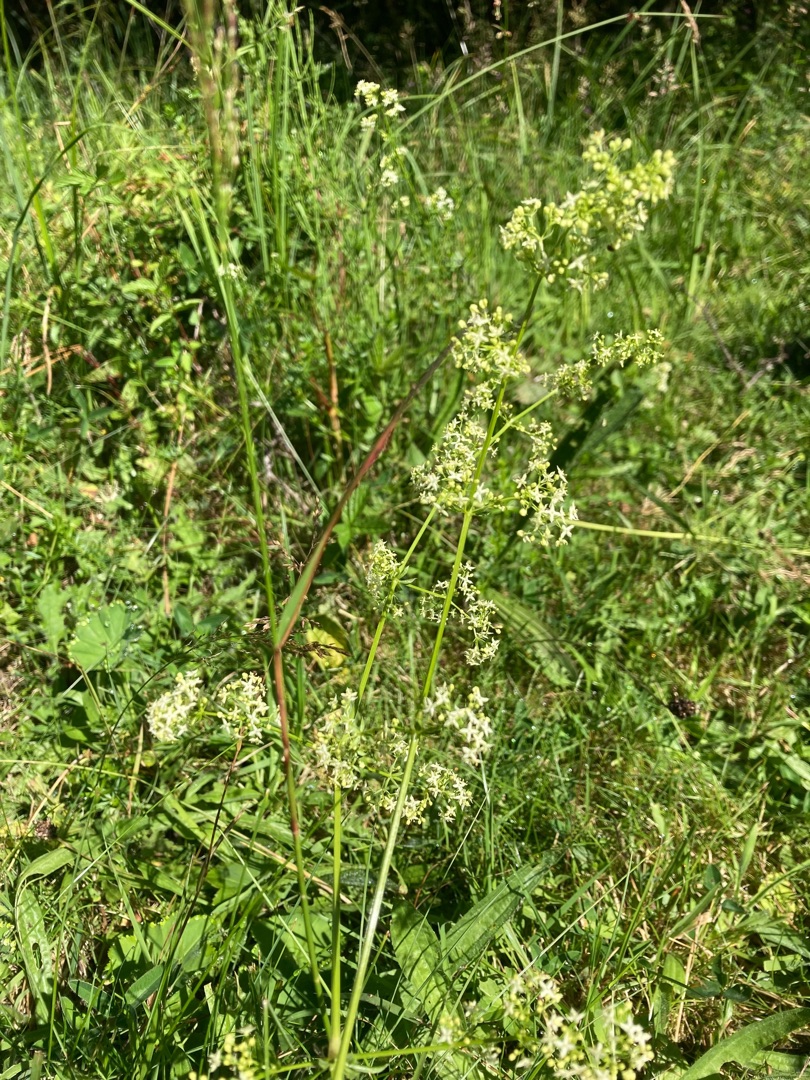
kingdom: Plantae
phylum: Tracheophyta
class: Magnoliopsida
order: Gentianales
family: Rubiaceae
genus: Galium
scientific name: Galium mollugo
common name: Hvid snerre
